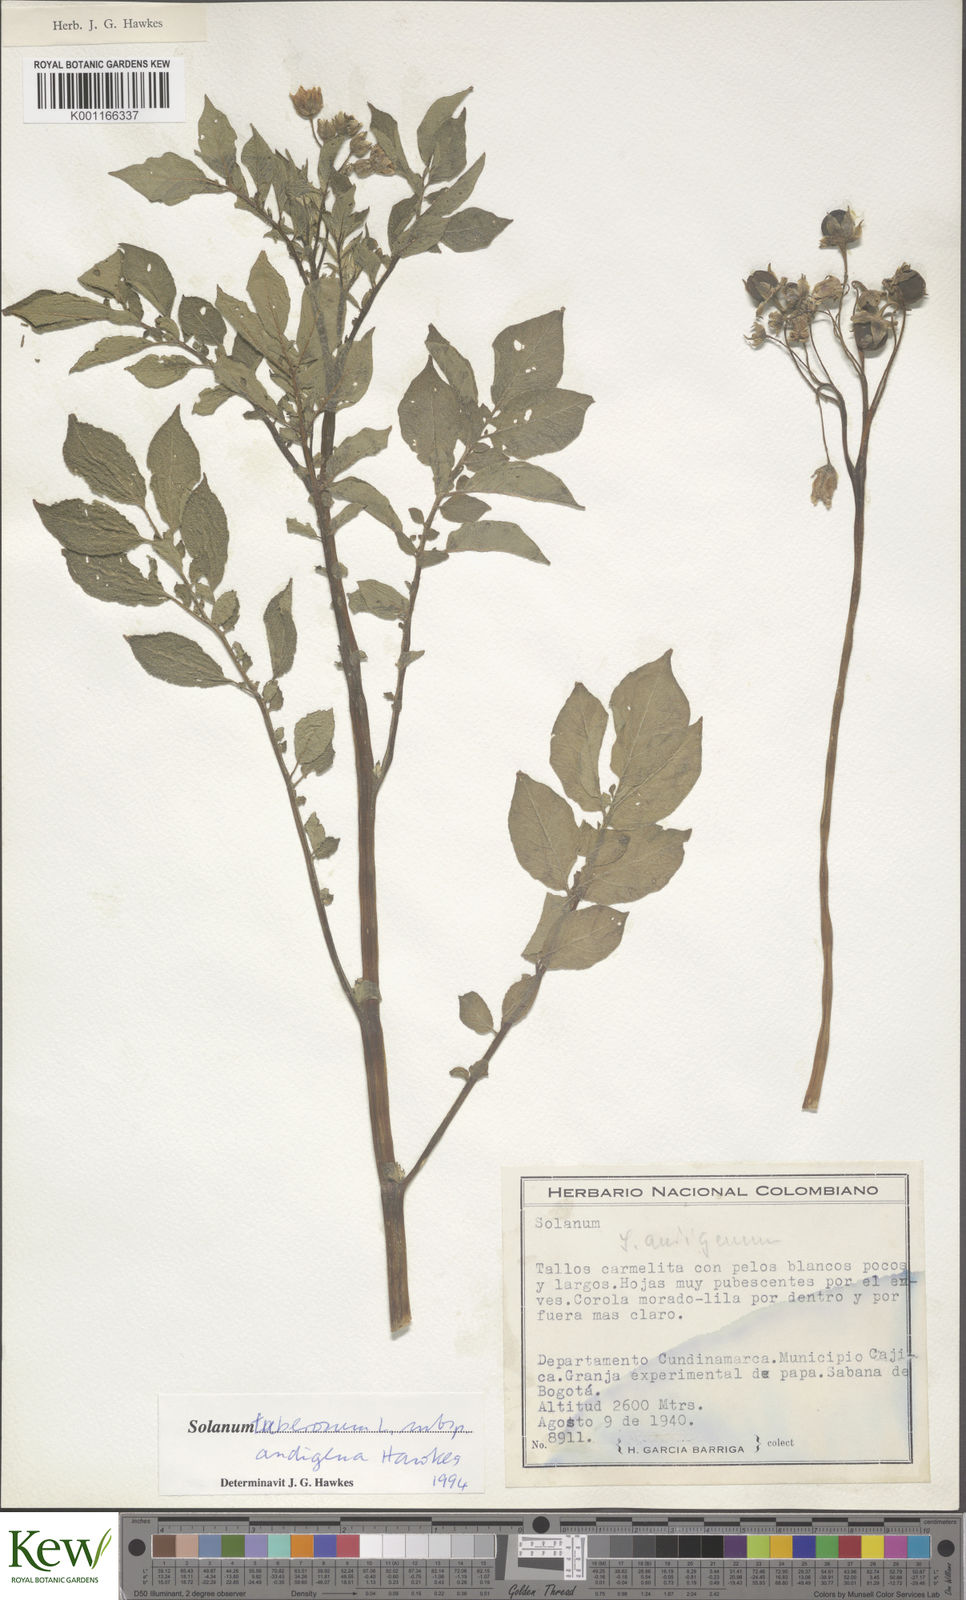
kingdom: Plantae
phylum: Tracheophyta
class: Magnoliopsida
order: Solanales
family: Solanaceae
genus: Solanum
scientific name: Solanum tuberosum
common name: Potato
